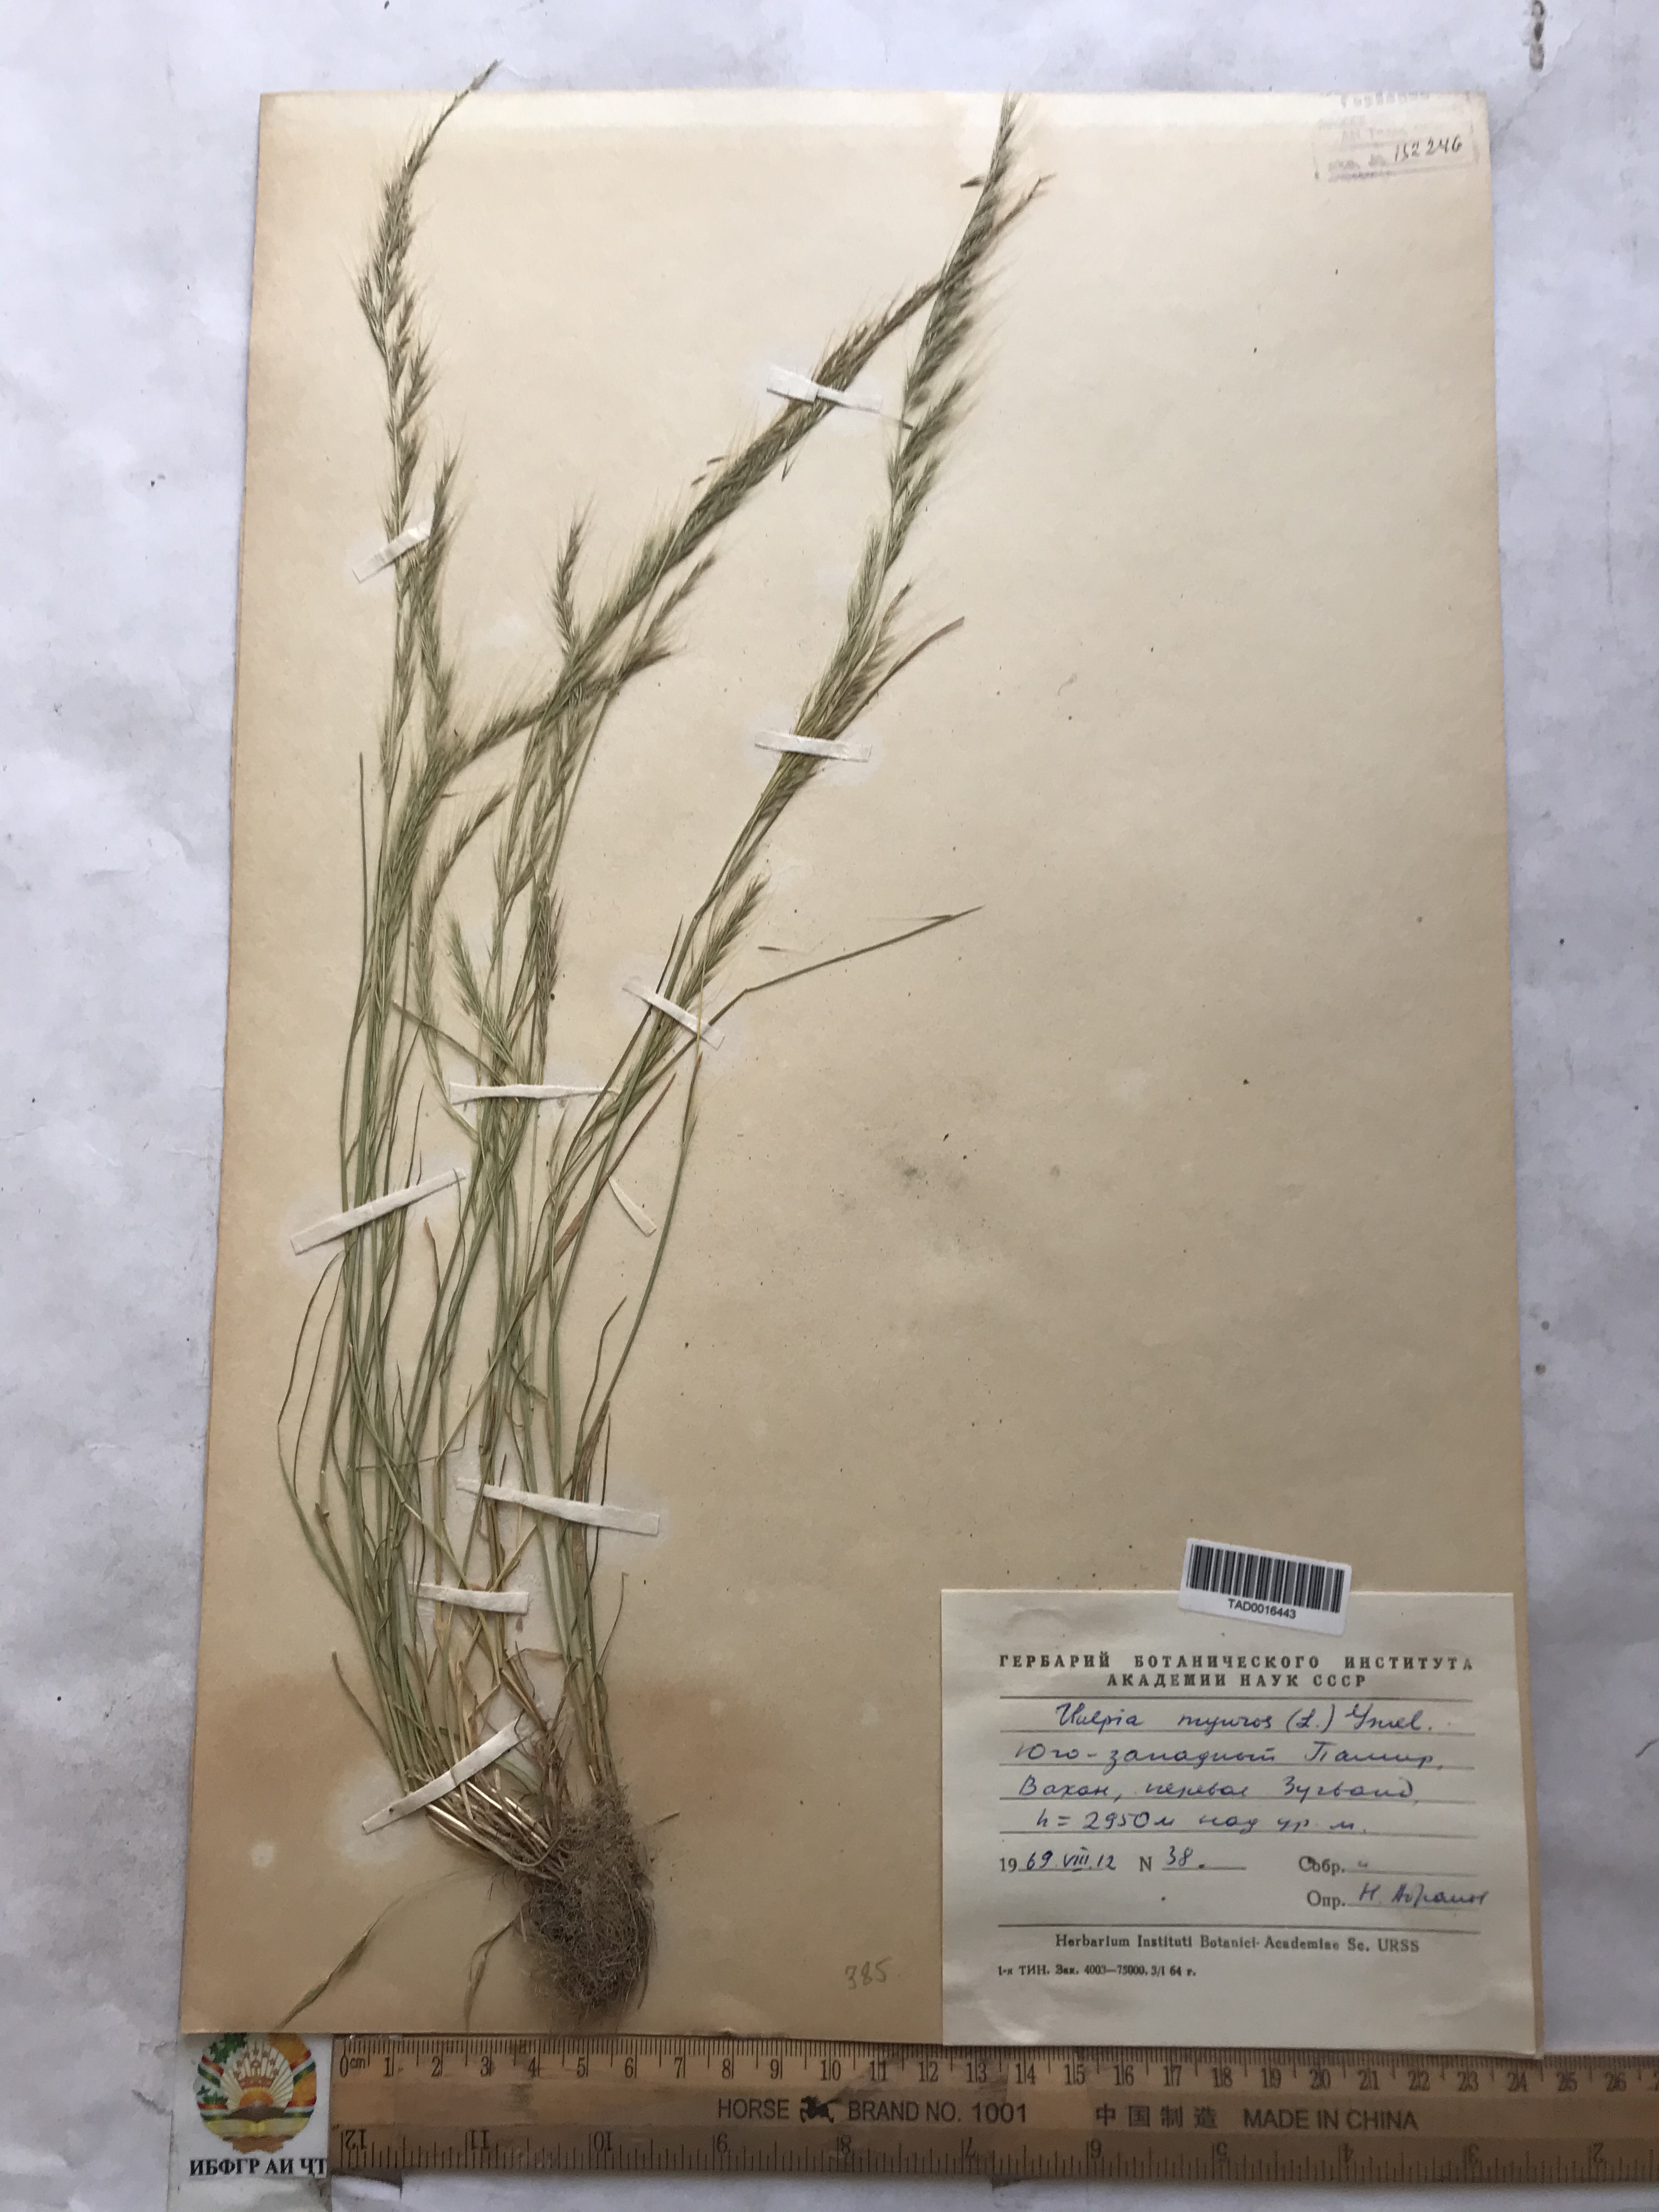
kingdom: Plantae
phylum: Tracheophyta
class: Liliopsida
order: Poales
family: Poaceae
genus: Festuca
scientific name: Festuca myuros
